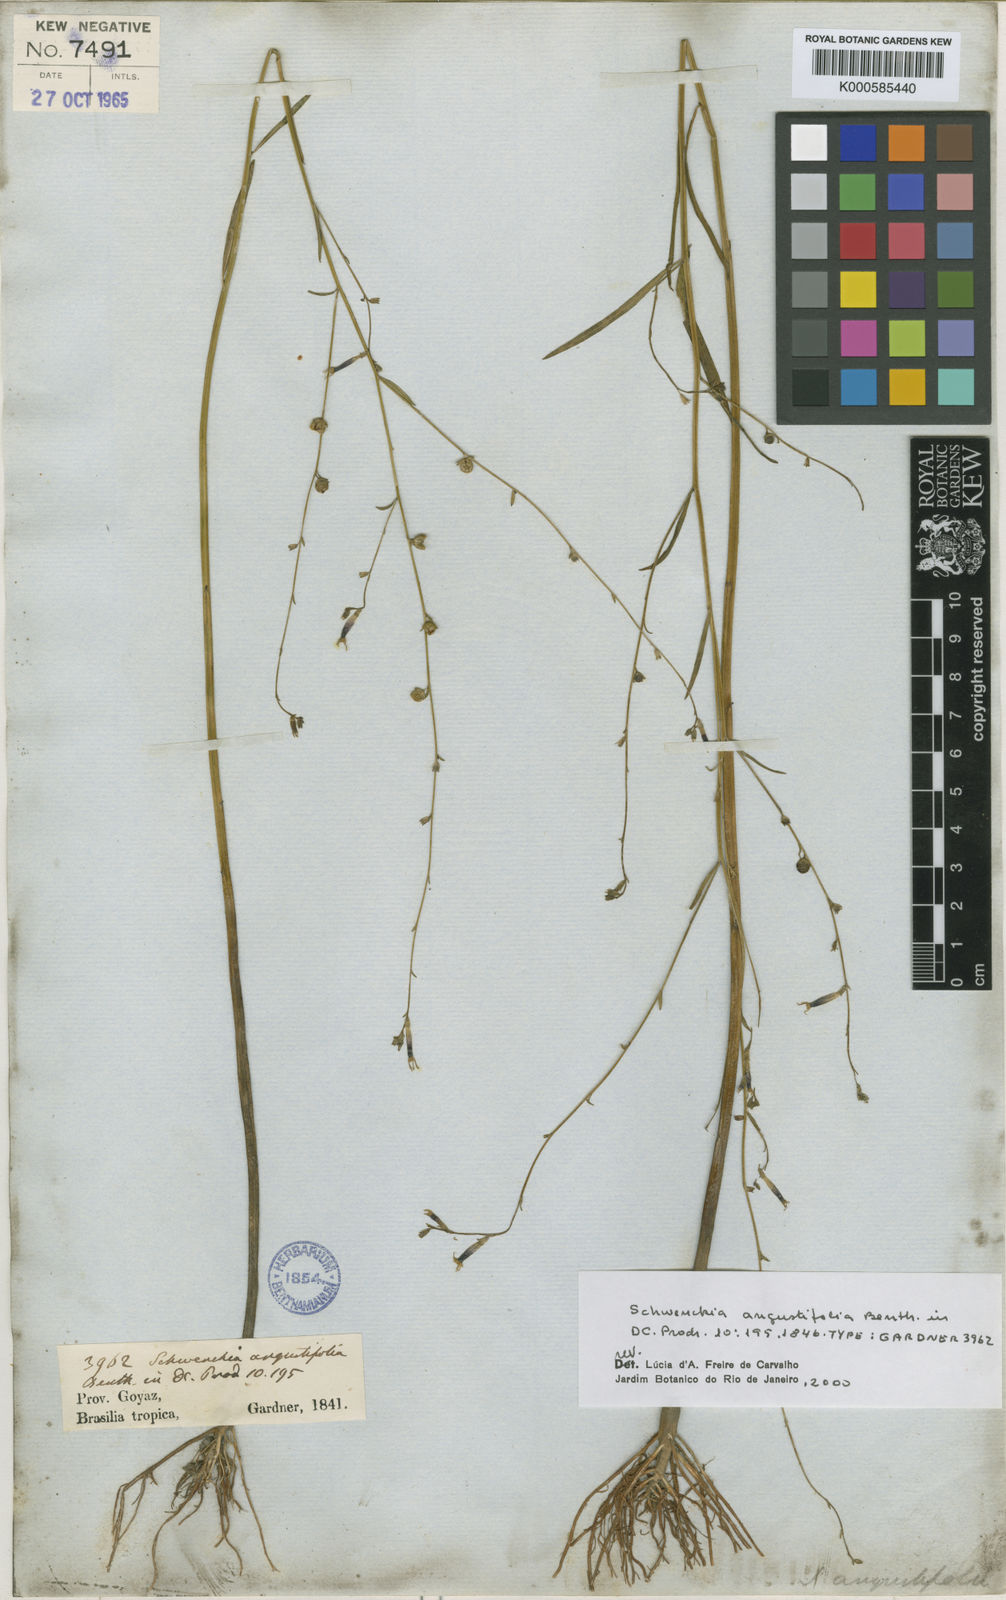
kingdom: Plantae
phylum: Tracheophyta
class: Magnoliopsida
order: Solanales
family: Solanaceae
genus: Schwenckia
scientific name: Schwenckia americana
